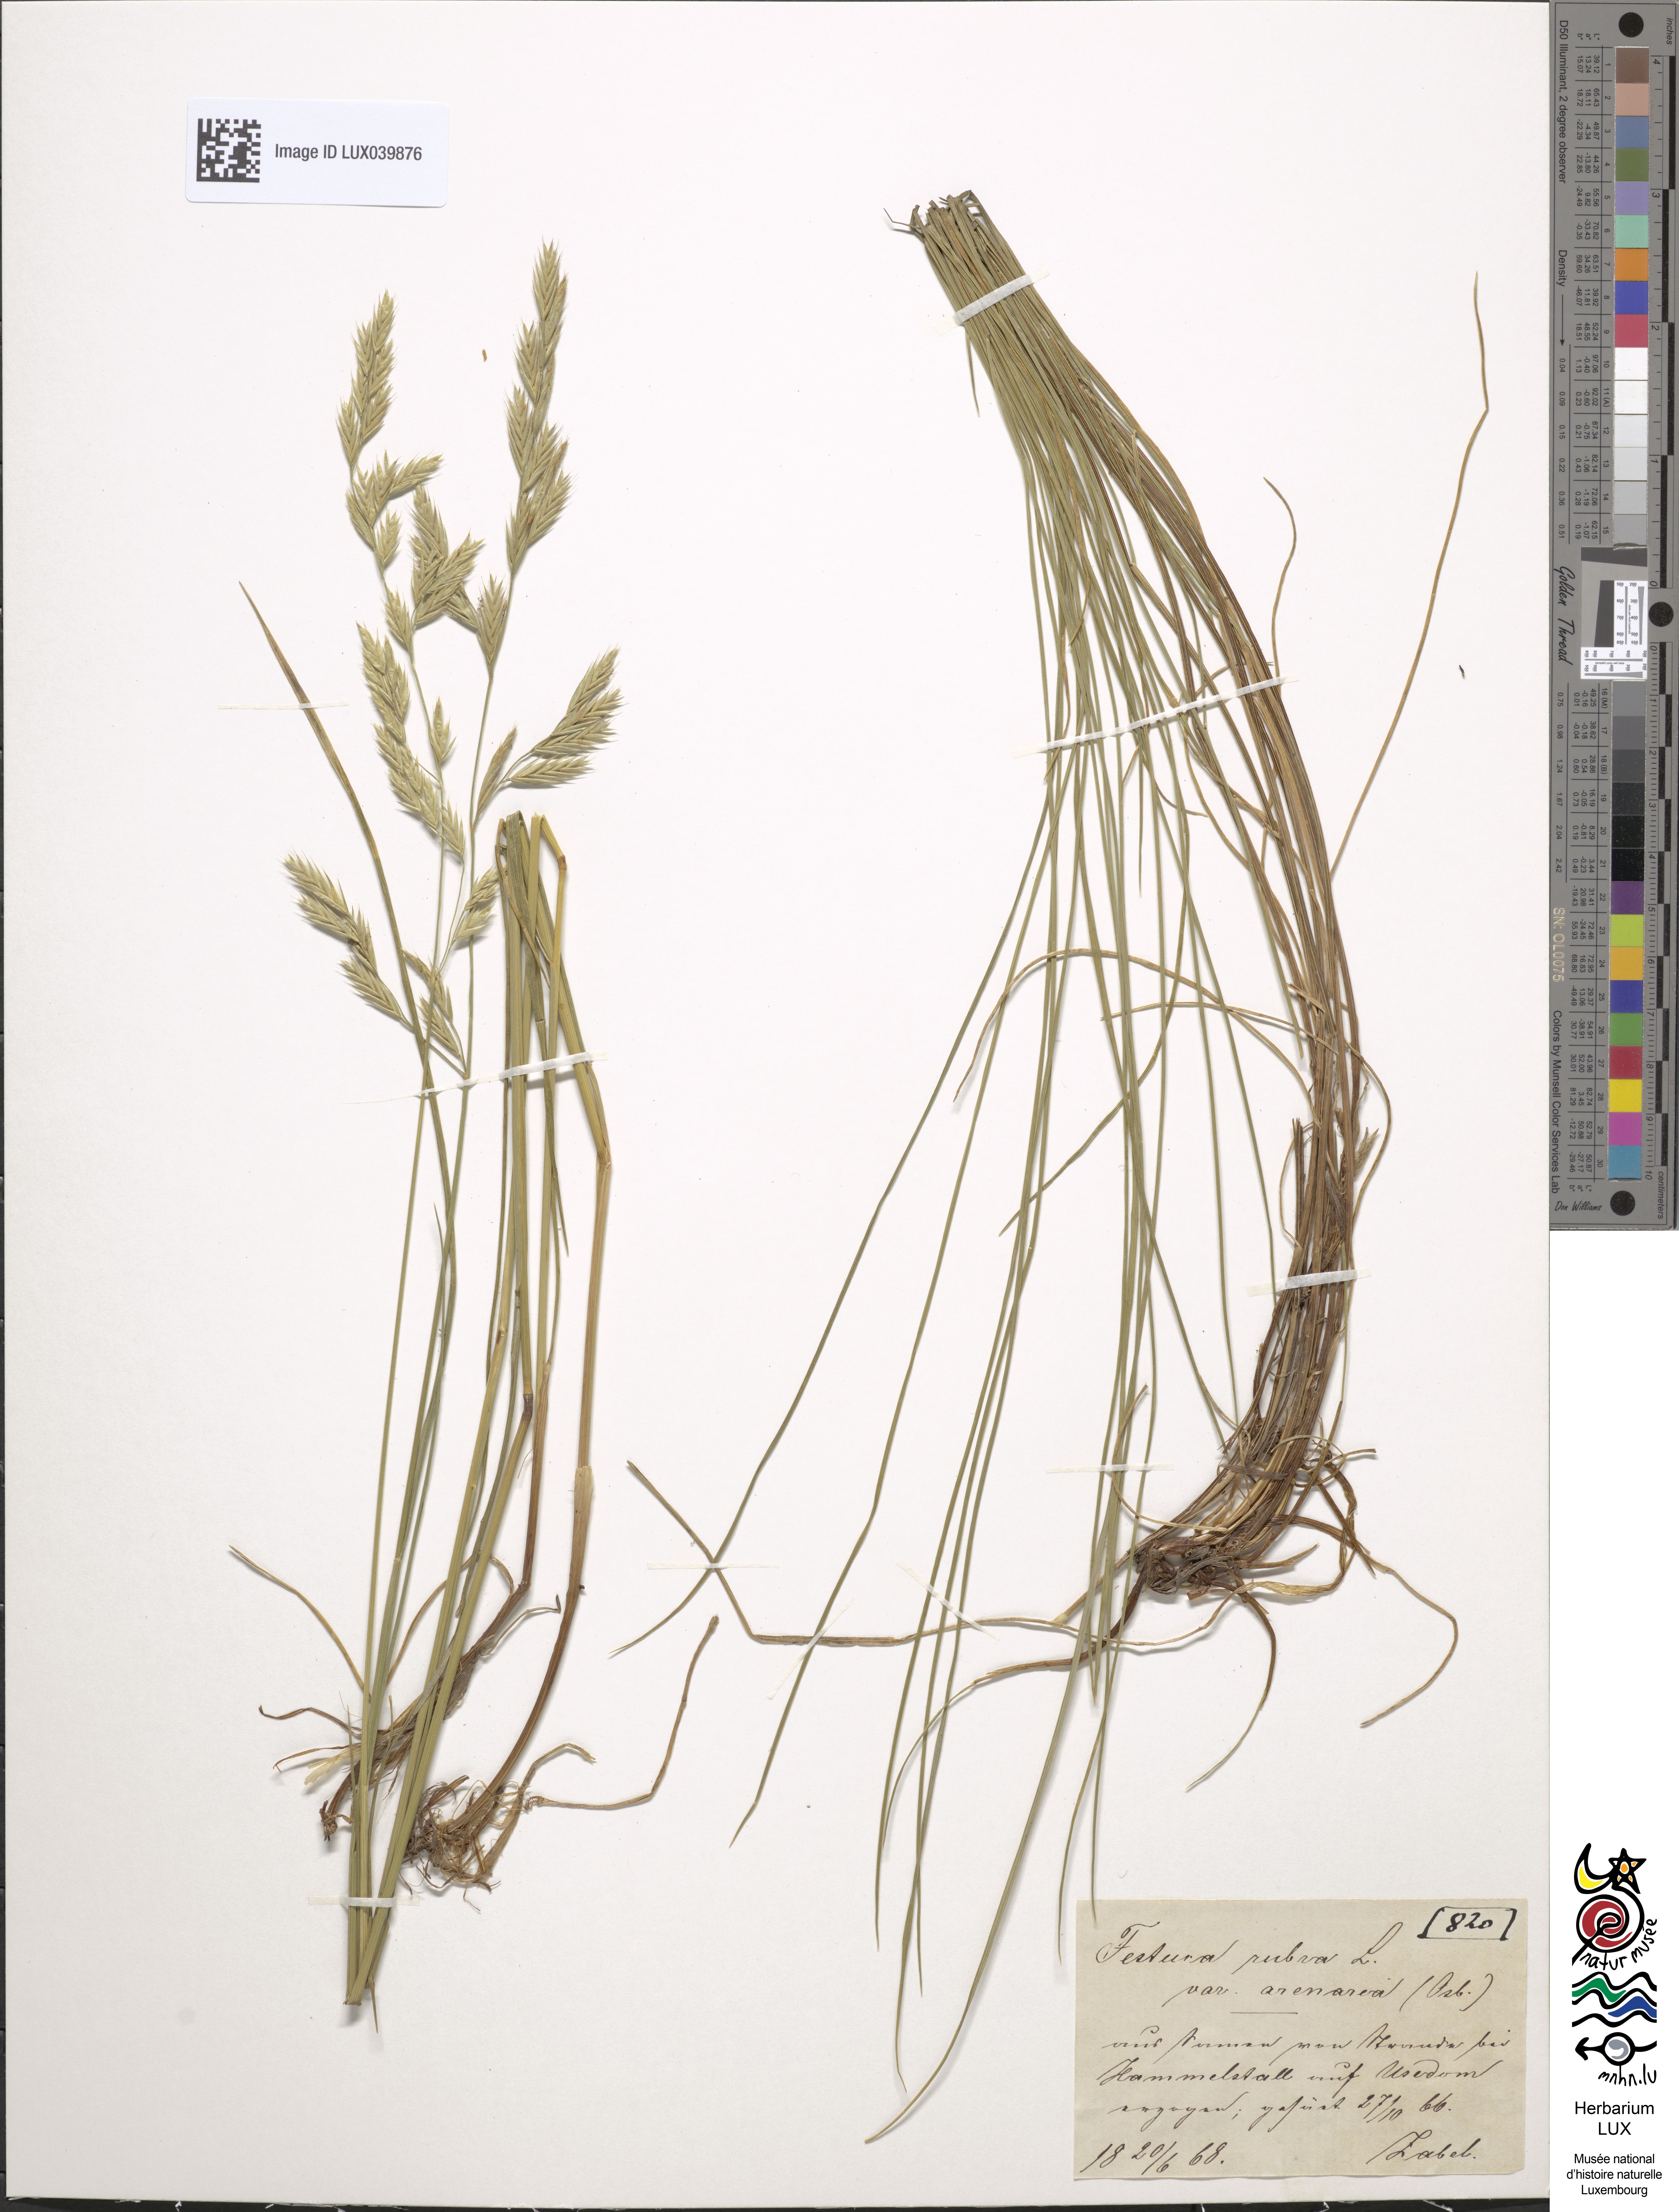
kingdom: Plantae
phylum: Tracheophyta
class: Liliopsida
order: Poales
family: Poaceae
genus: Festuca
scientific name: Festuca rubra
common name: Red fescue
